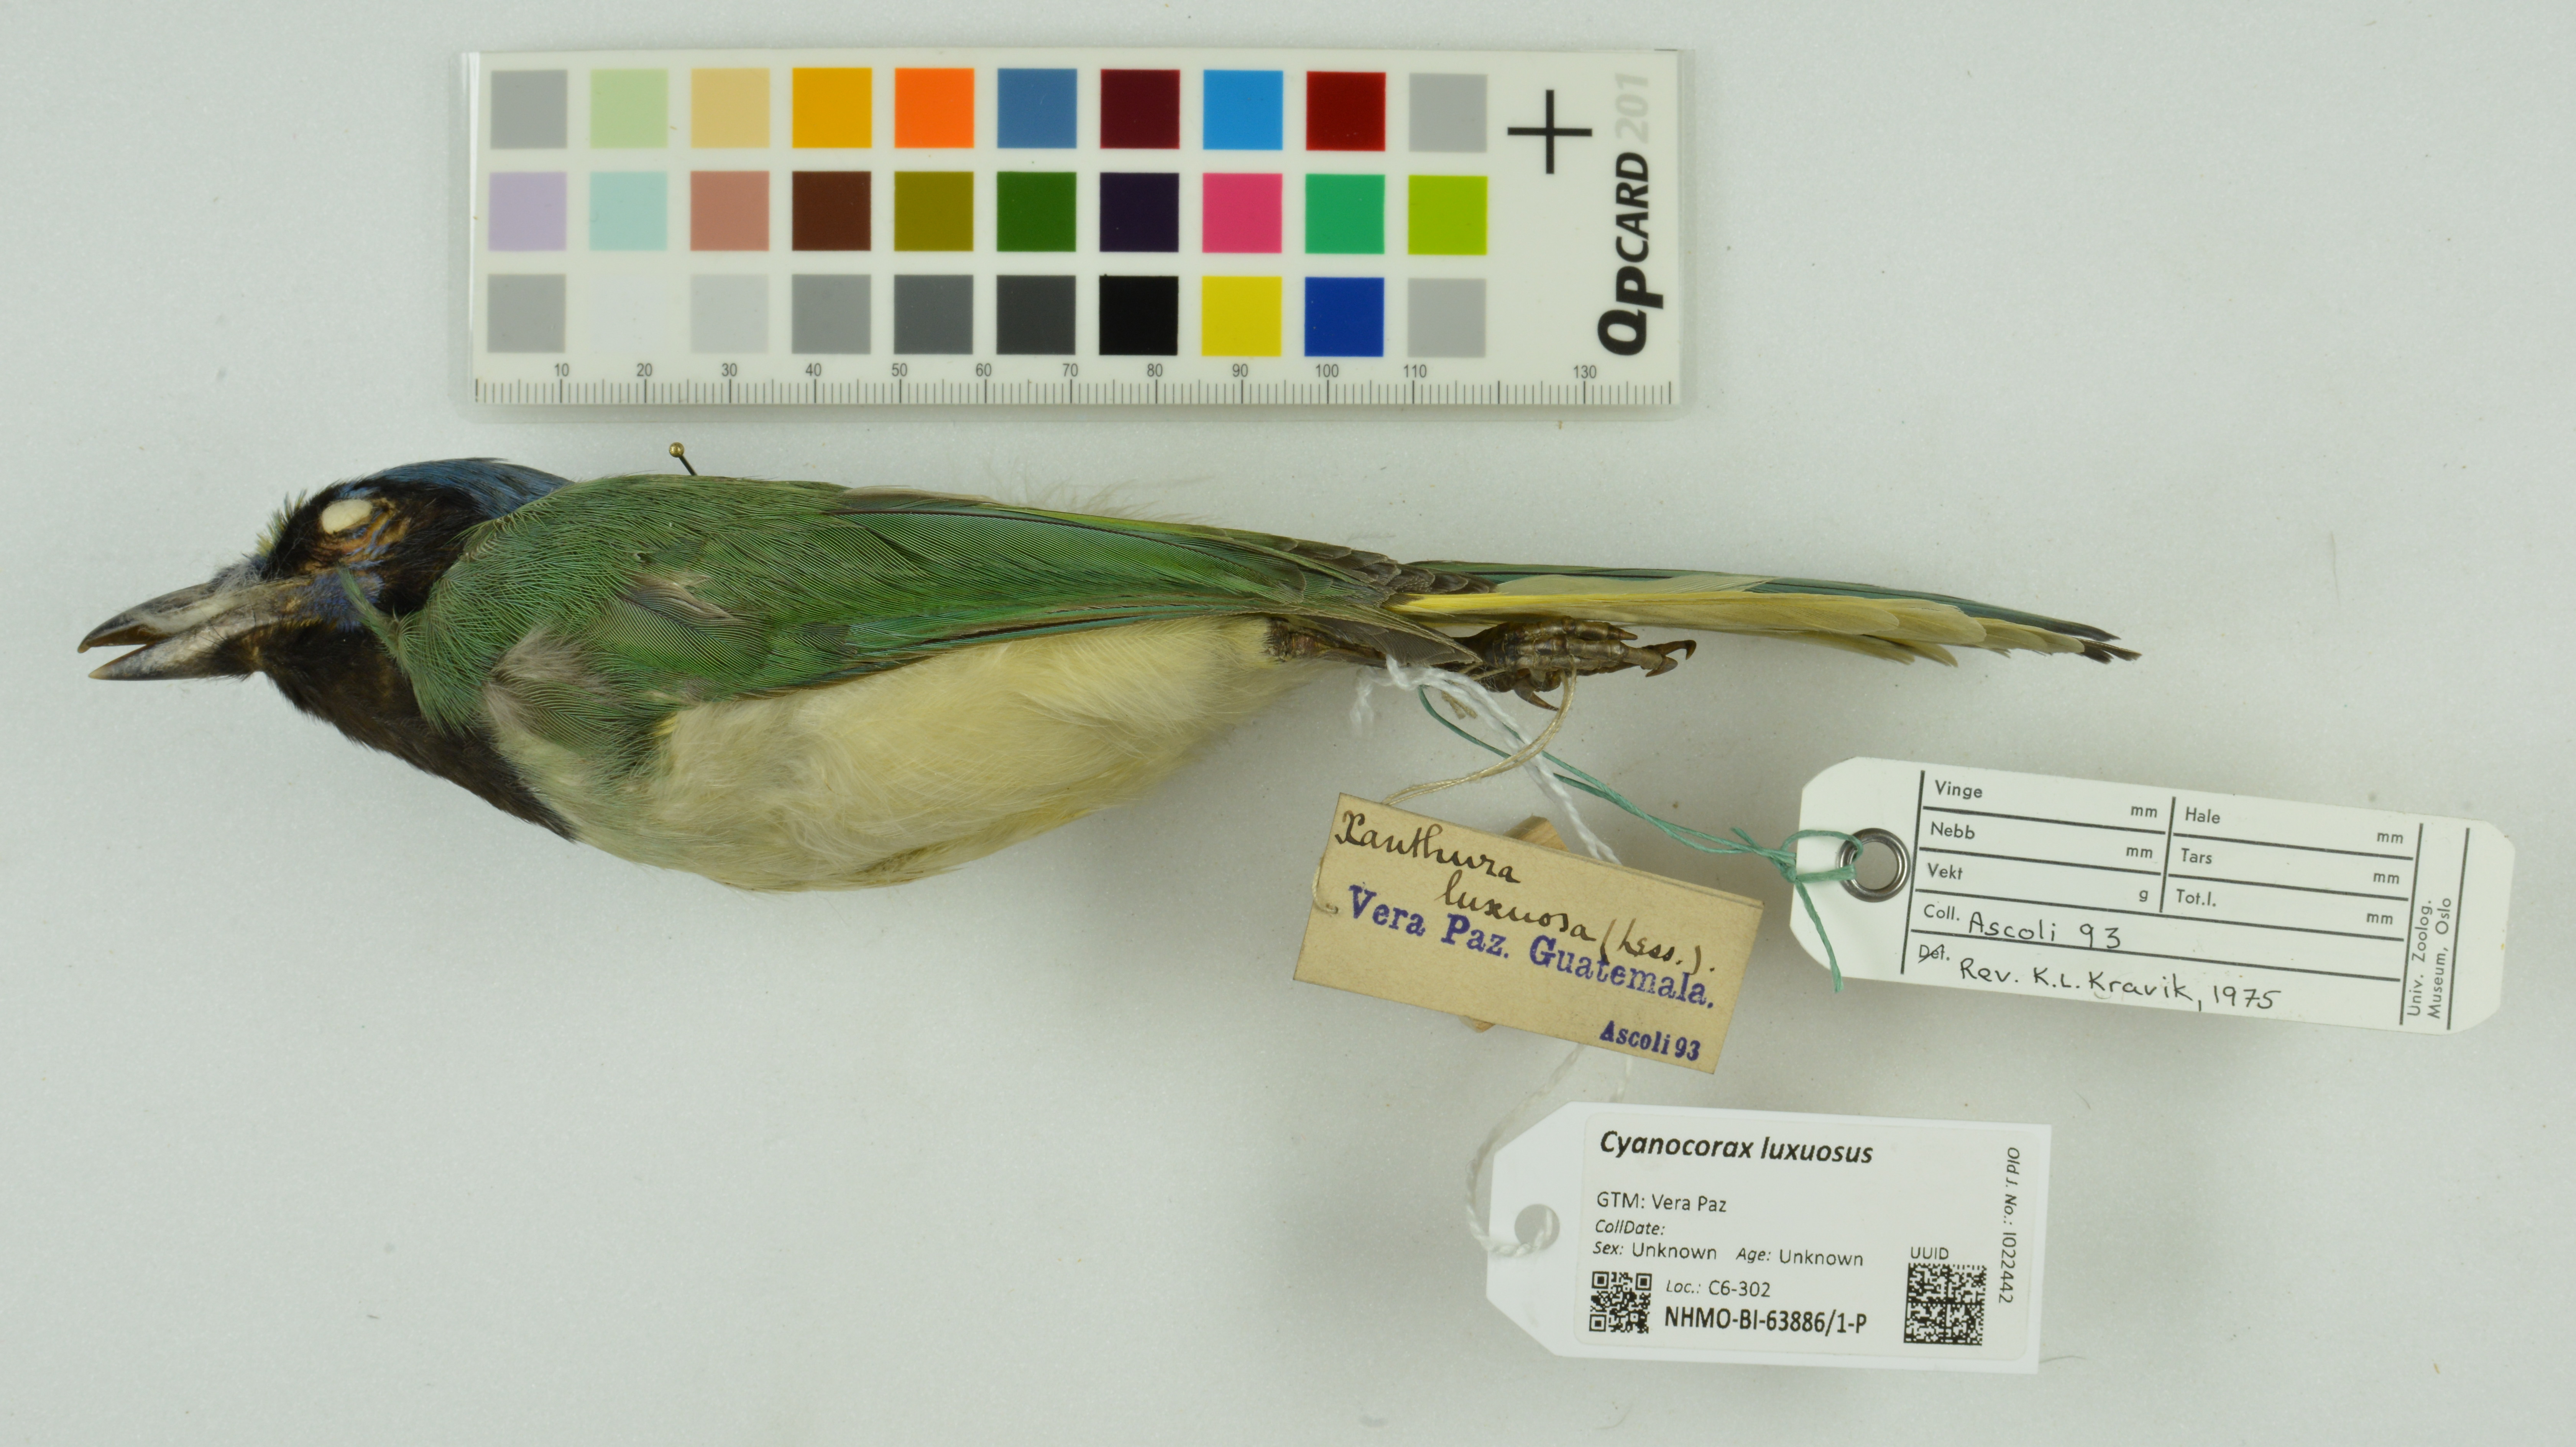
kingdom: Animalia
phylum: Chordata
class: Aves
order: Passeriformes
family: Corvidae
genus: Cyanocorax
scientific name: Cyanocorax luxuosus
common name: Green jay
